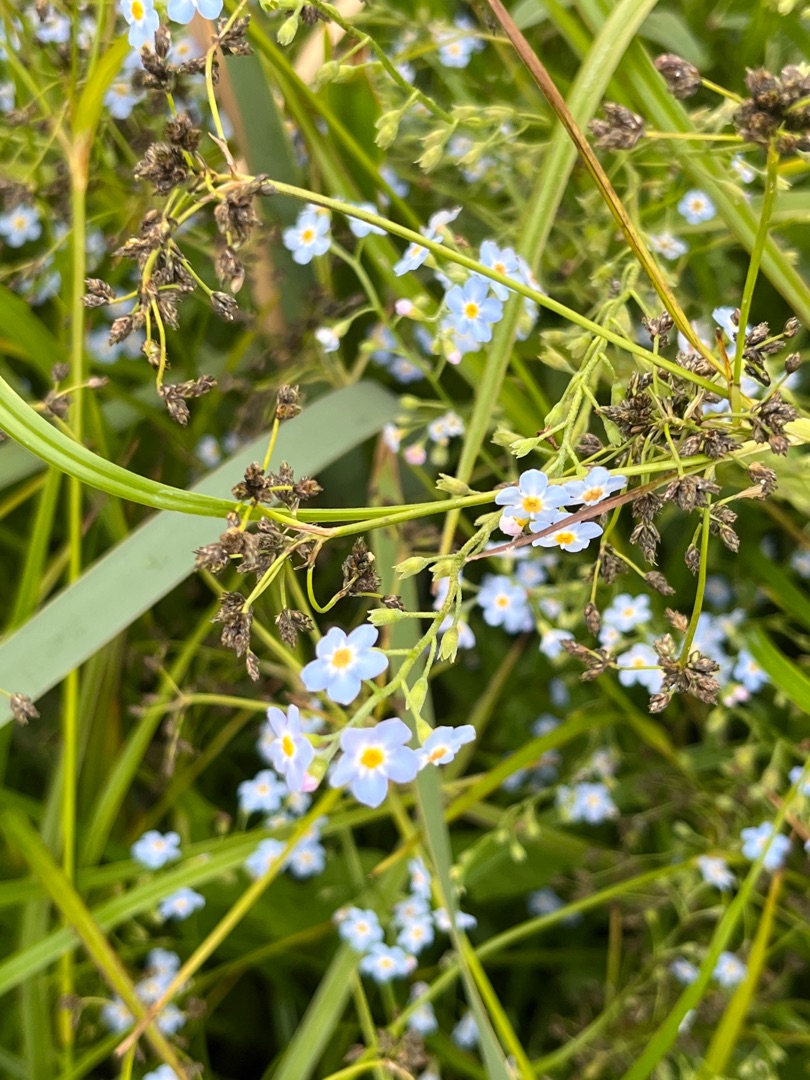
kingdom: Plantae
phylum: Tracheophyta
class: Magnoliopsida
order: Boraginales
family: Boraginaceae
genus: Myosotis
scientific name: Myosotis scorpioides
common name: Eng-forglemmigej
